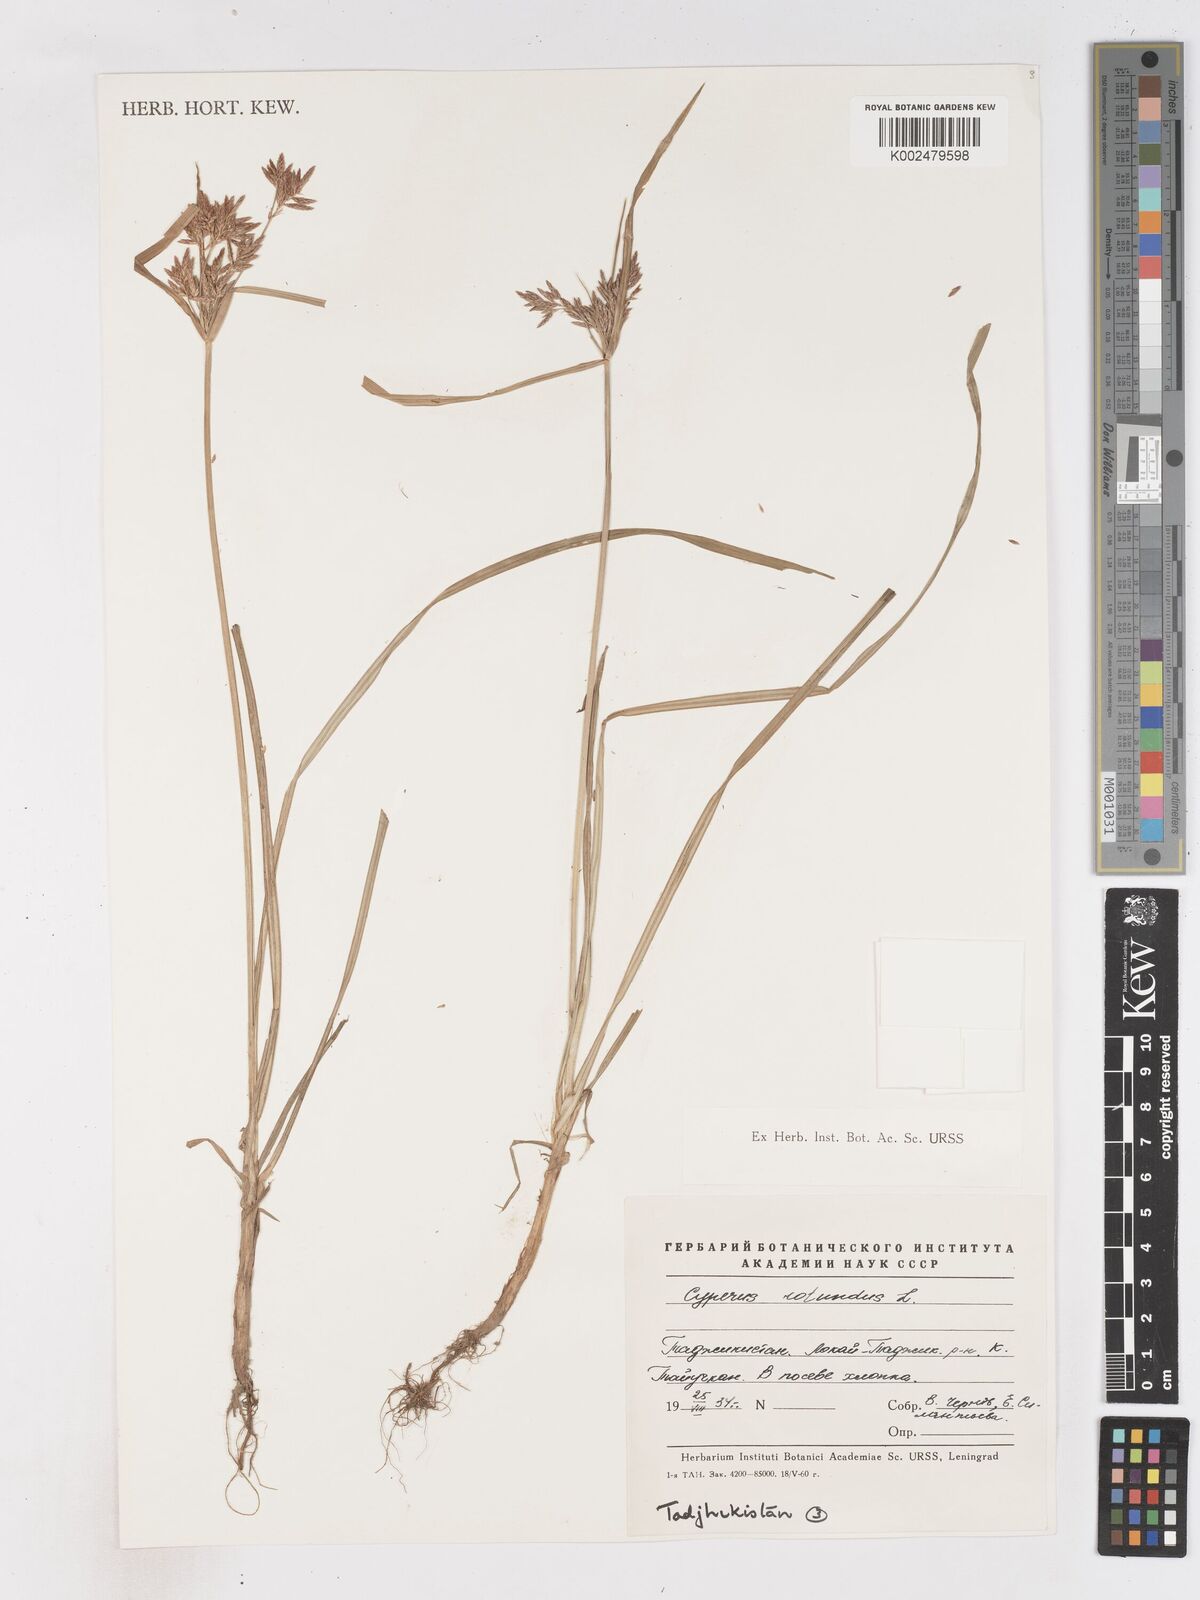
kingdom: Plantae
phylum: Tracheophyta
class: Liliopsida
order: Poales
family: Cyperaceae
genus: Cyperus
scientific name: Cyperus rotundus
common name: Nutgrass
